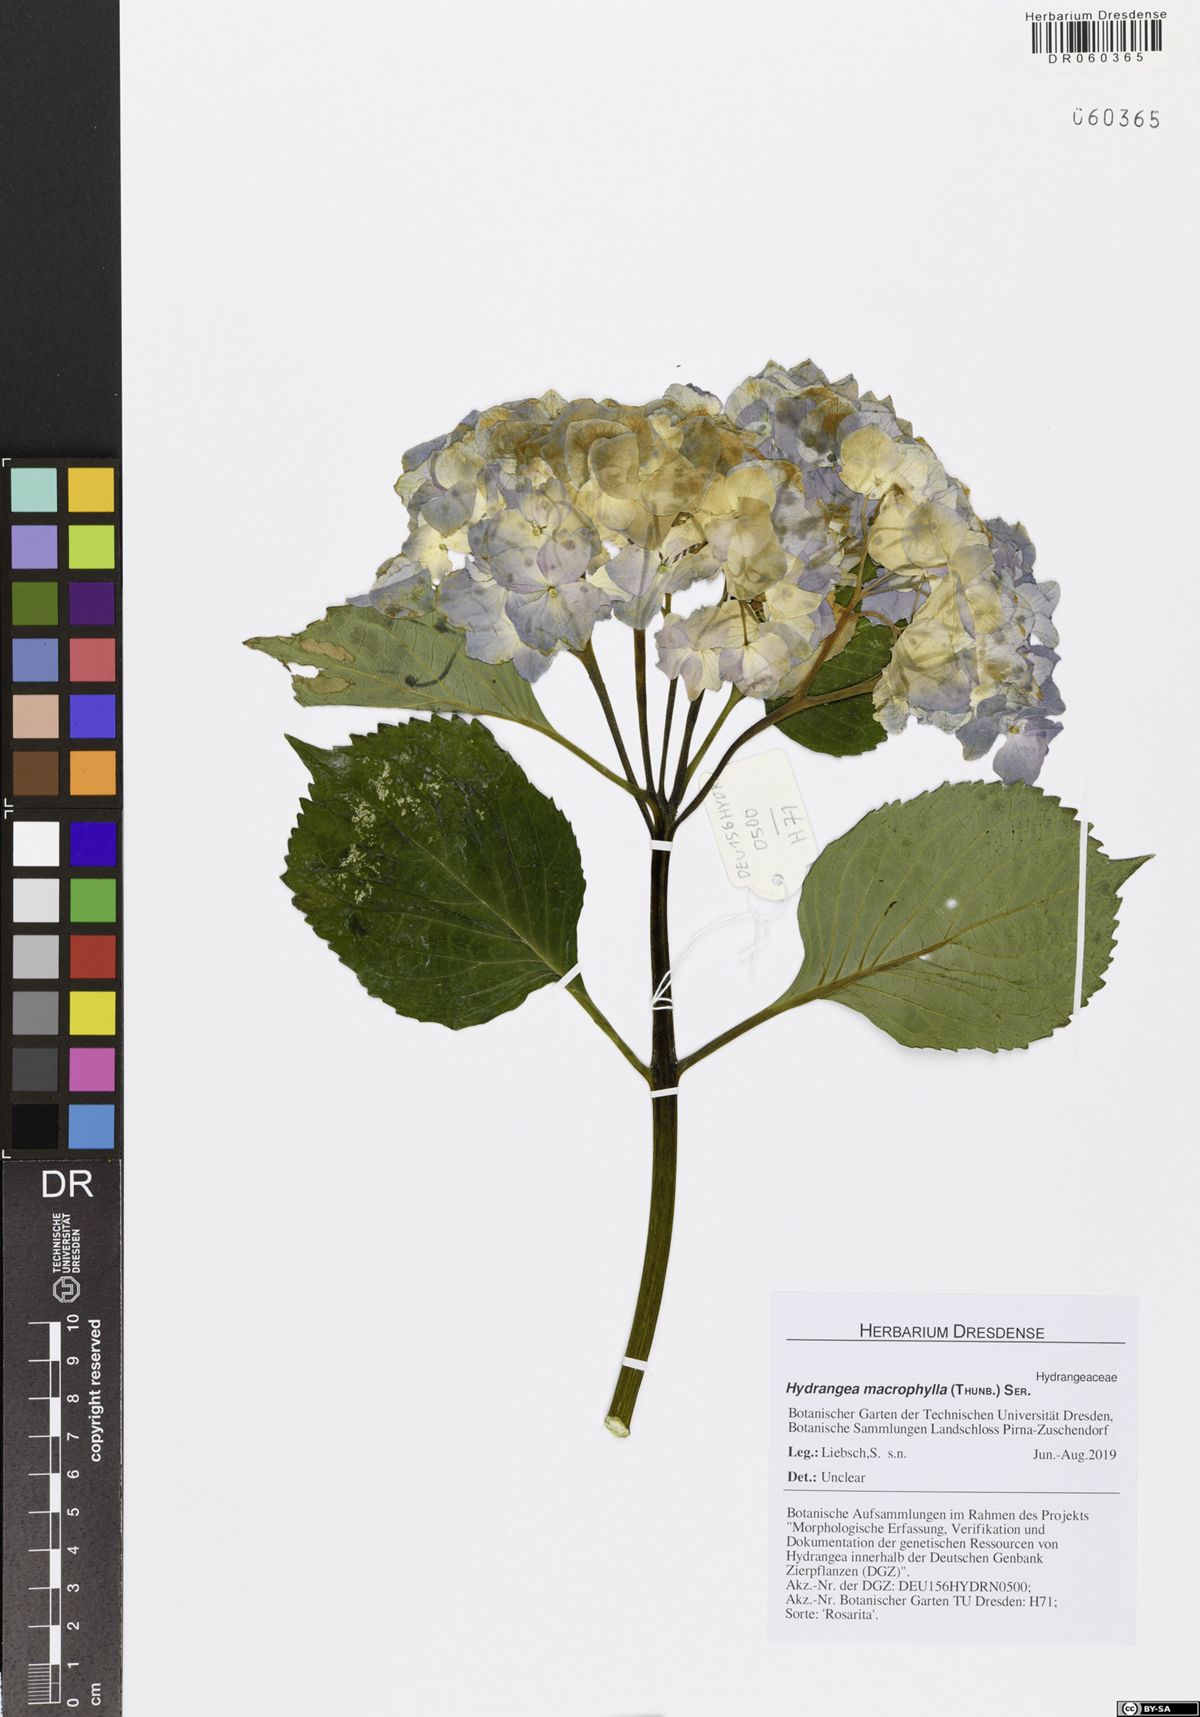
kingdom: Plantae
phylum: Tracheophyta
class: Magnoliopsida
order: Cornales
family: Hydrangeaceae
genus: Hydrangea
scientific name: Hydrangea macrophylla
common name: Hydrangea
